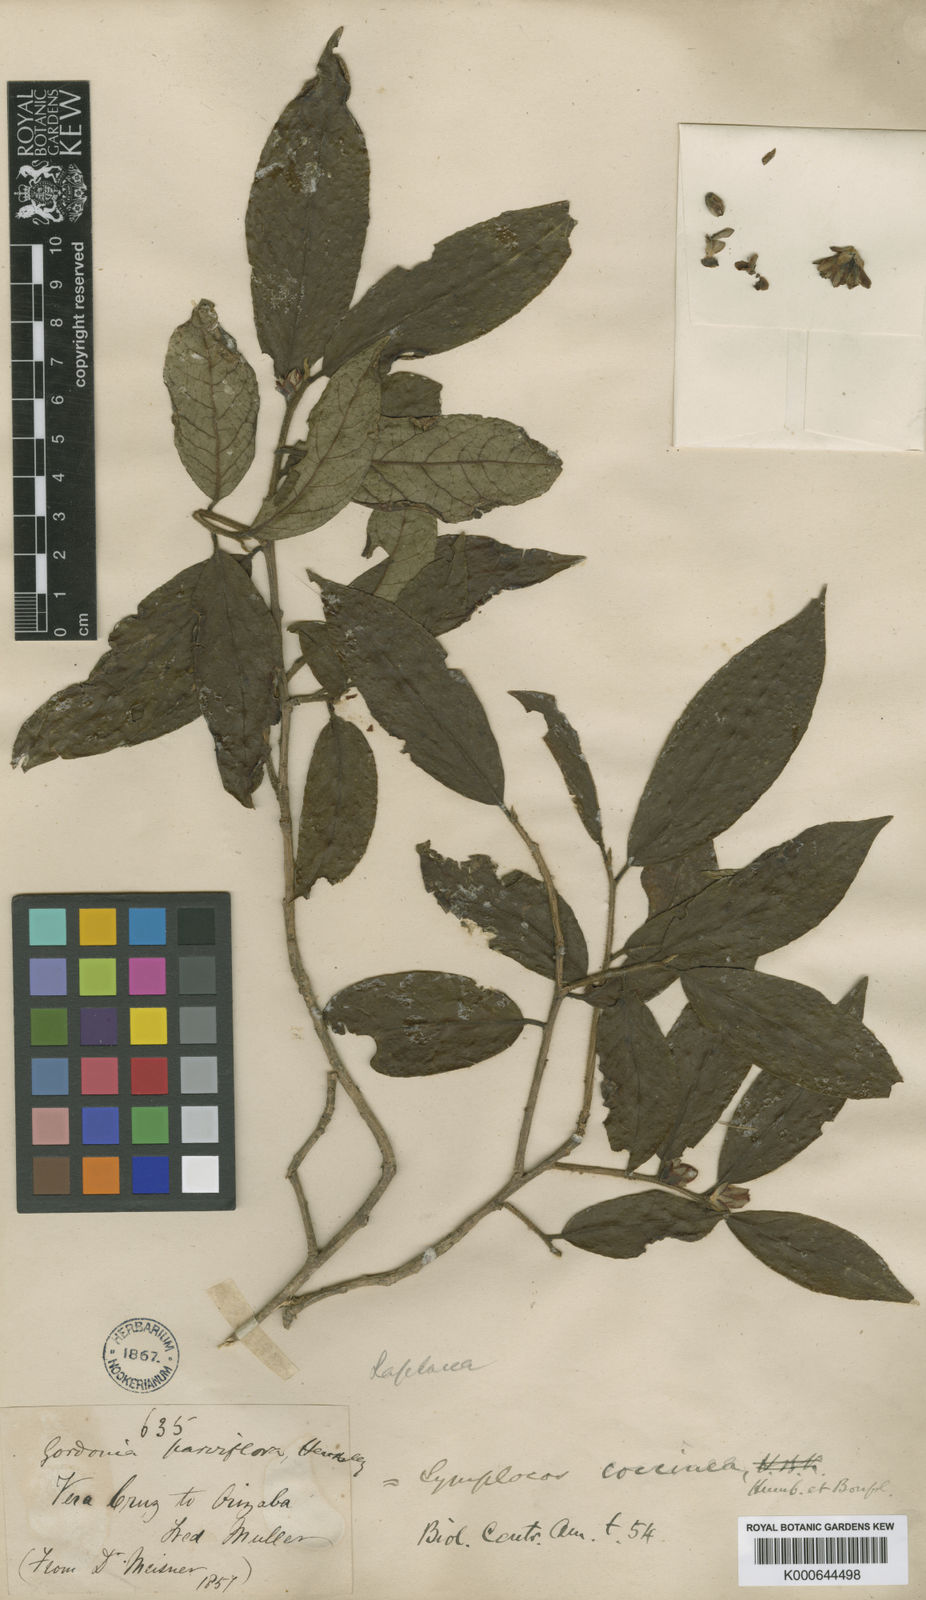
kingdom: Plantae
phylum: Tracheophyta
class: Magnoliopsida
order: Ericales
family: Symplocaceae
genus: Symplocos
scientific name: Symplocos coccinea
